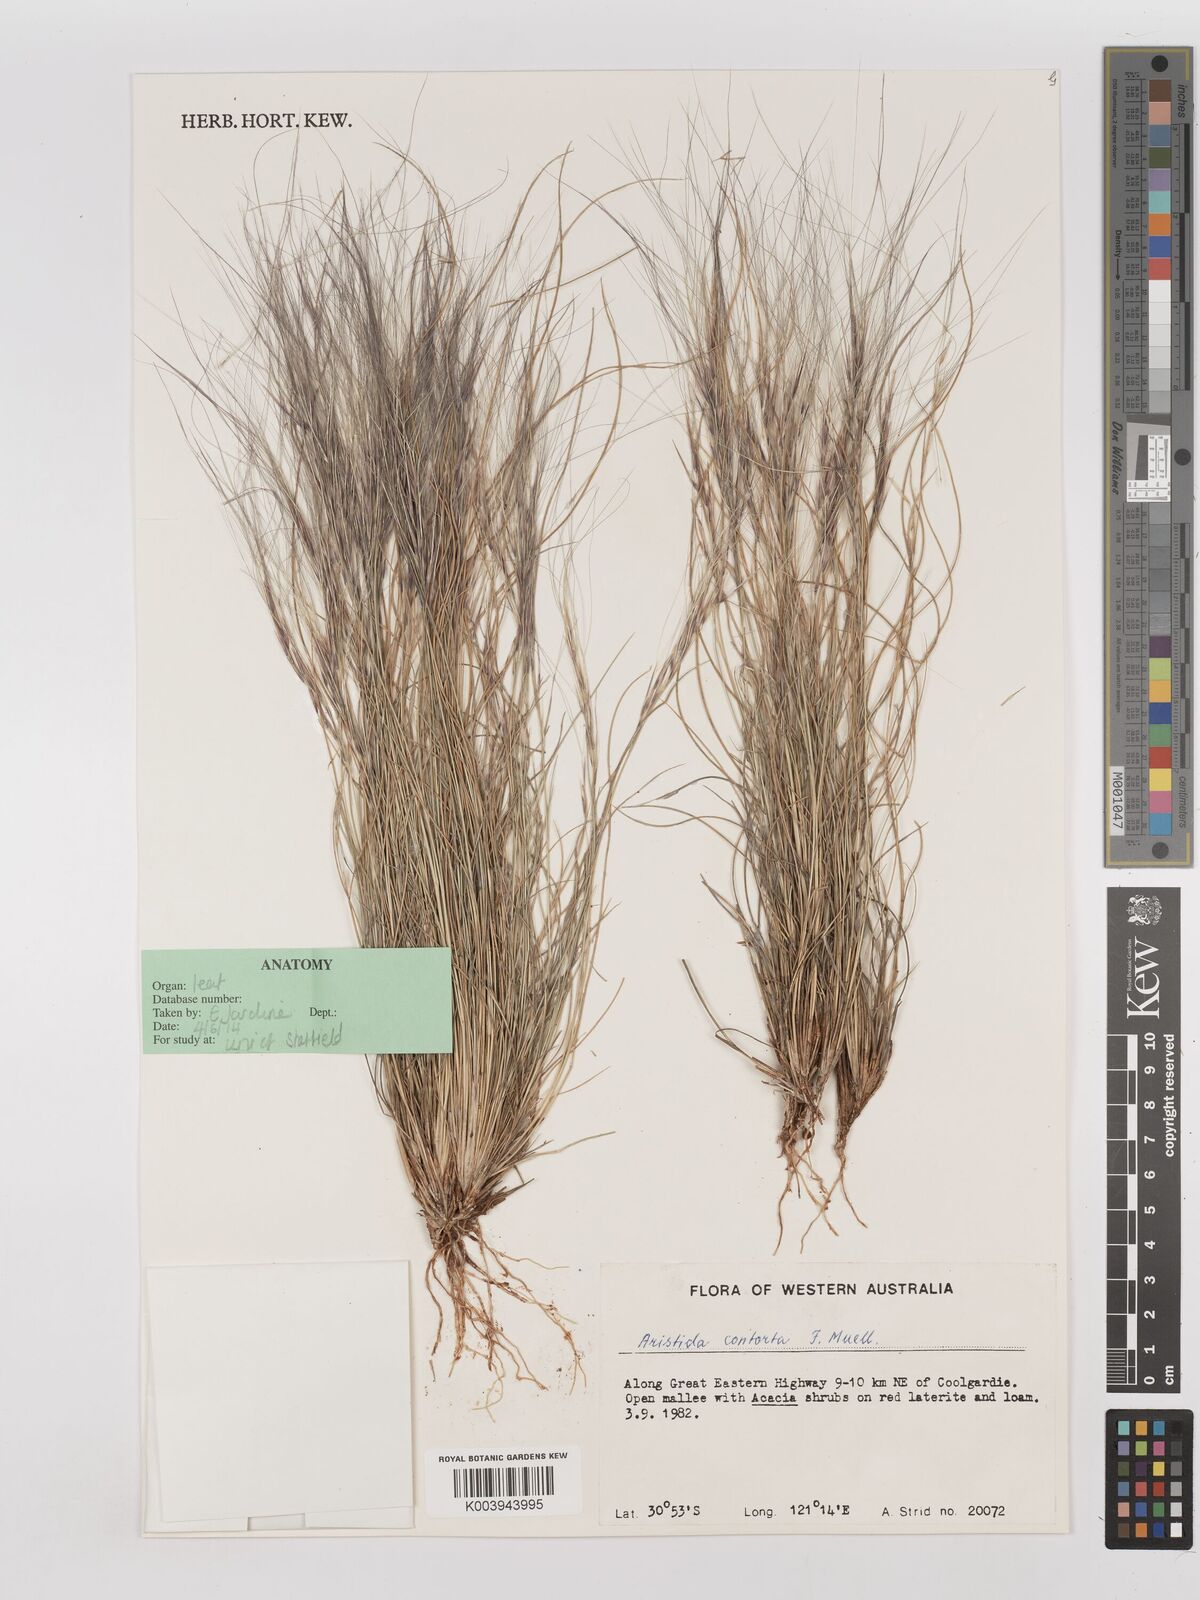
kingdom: Plantae
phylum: Tracheophyta
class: Liliopsida
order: Poales
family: Poaceae
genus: Aristida
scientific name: Aristida contorta
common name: Bunch kerosene grass
